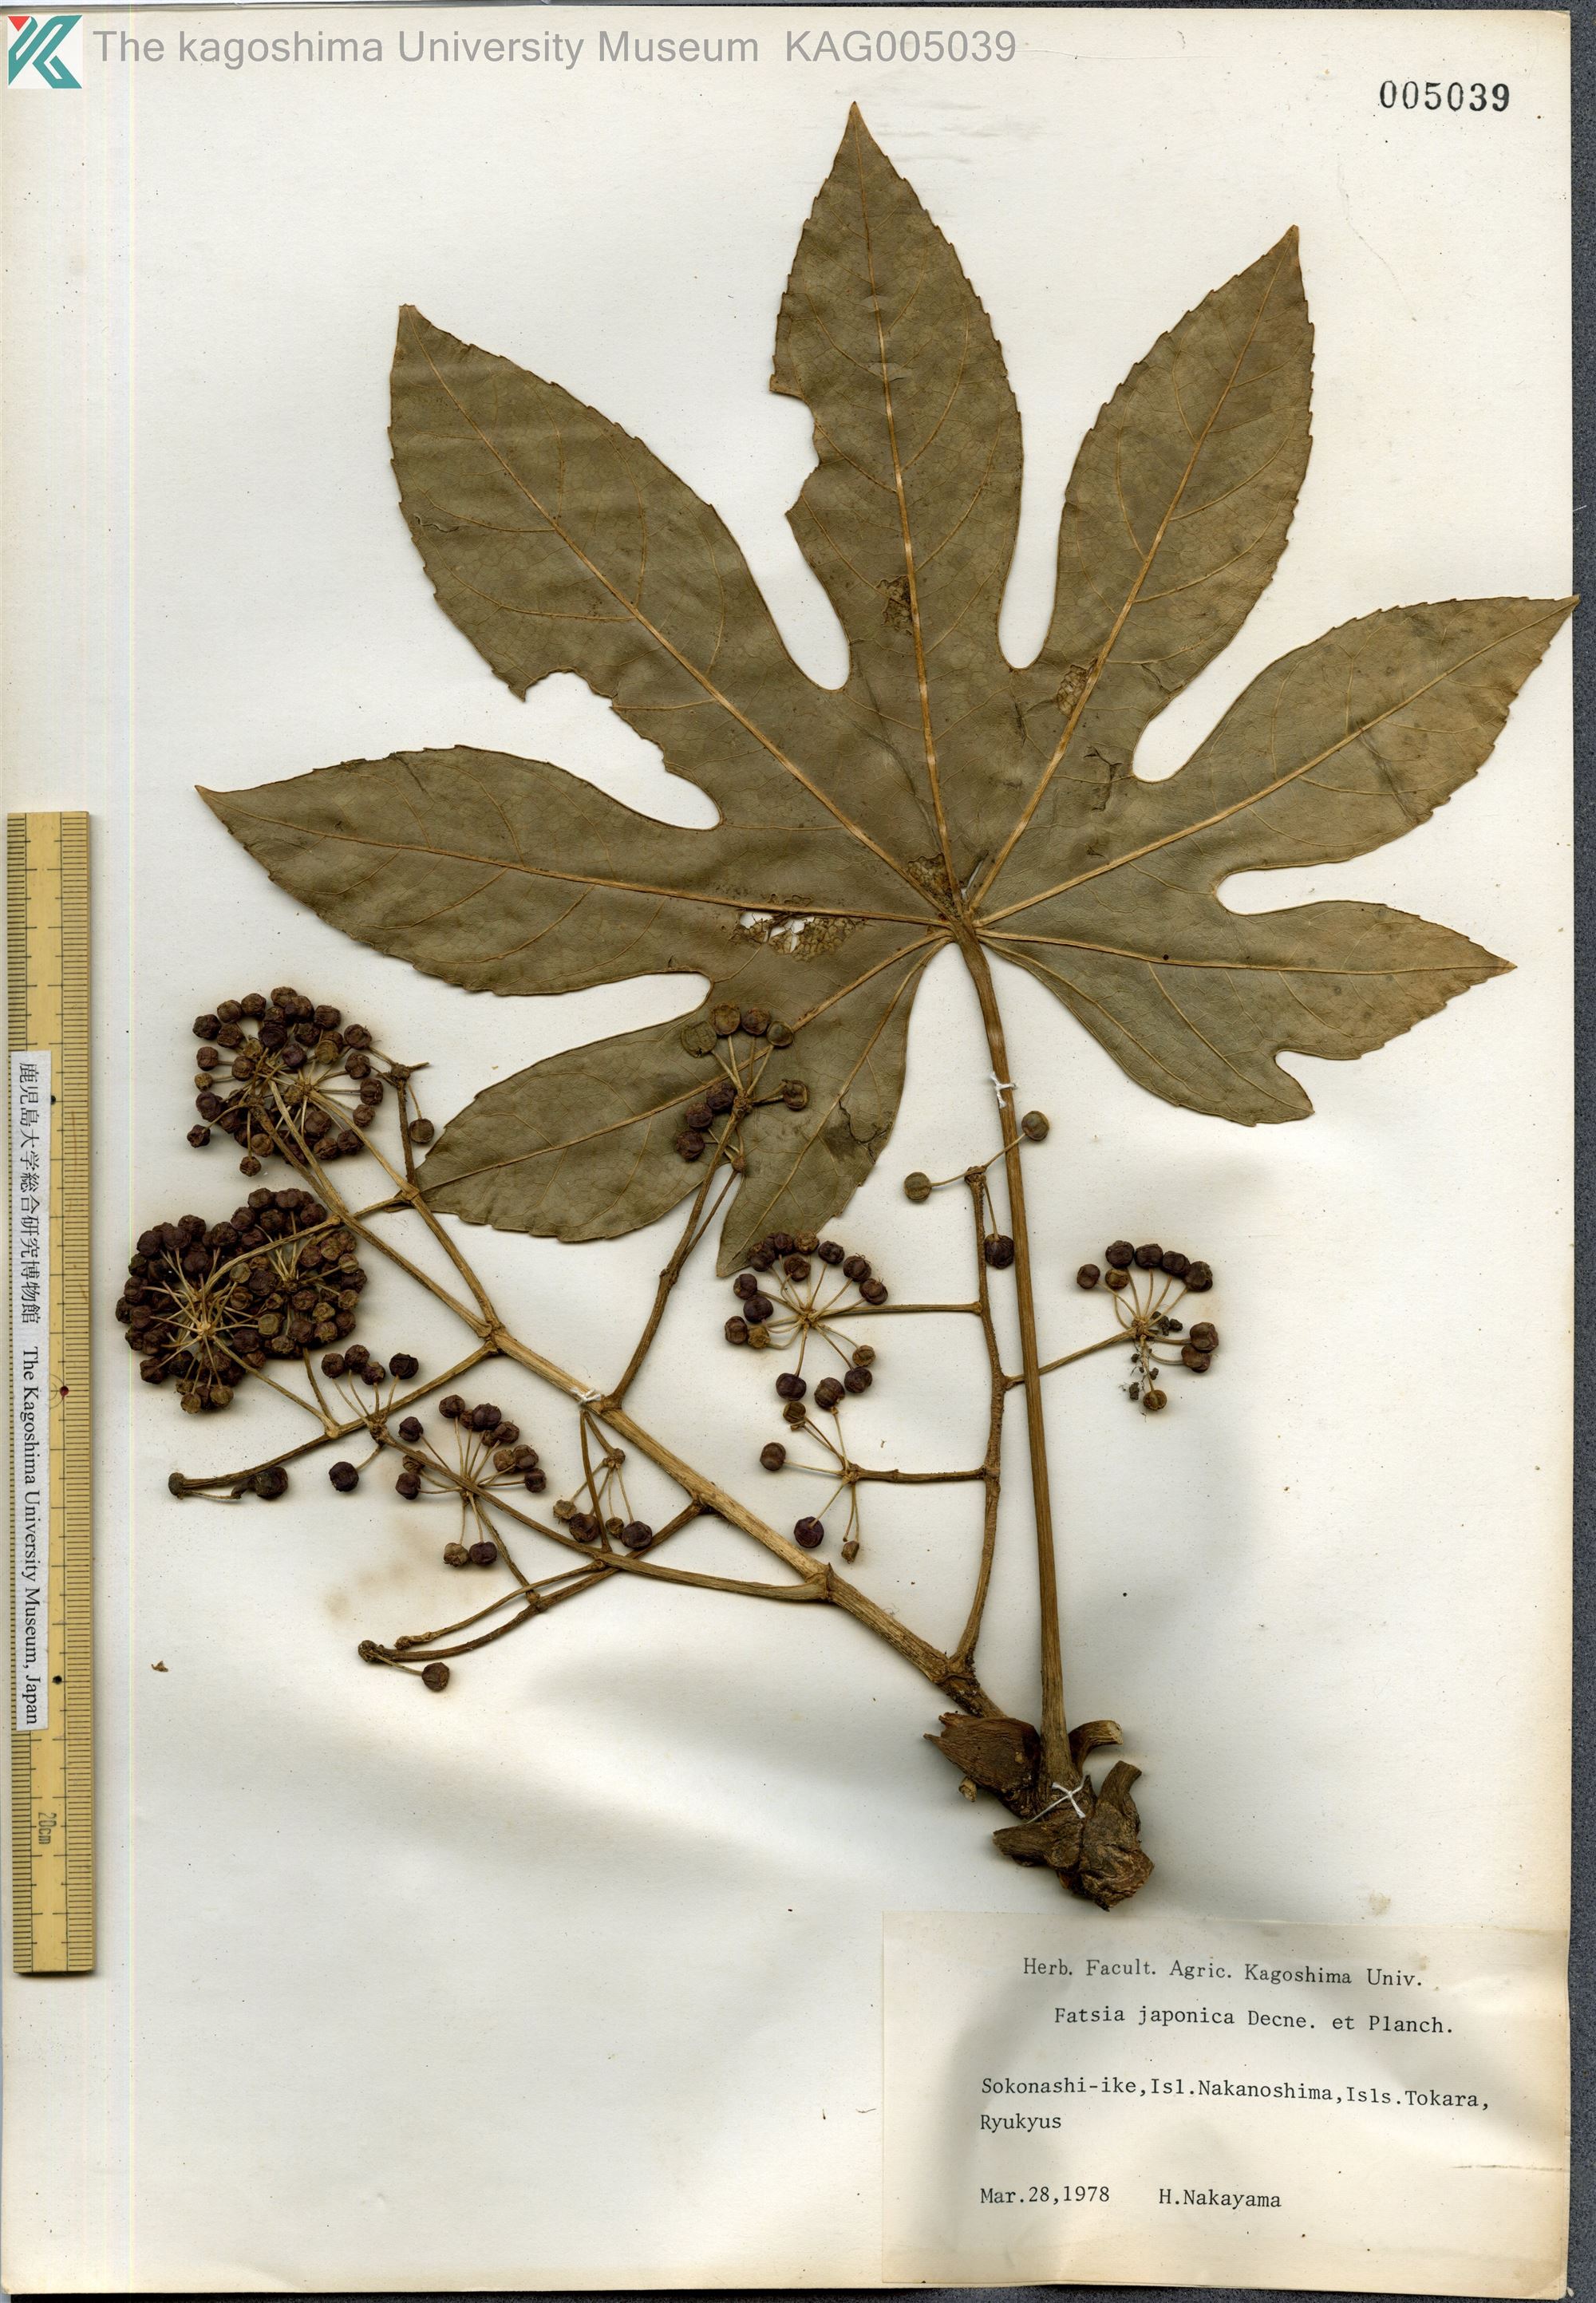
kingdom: Plantae
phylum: Tracheophyta
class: Magnoliopsida
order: Apiales
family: Araliaceae
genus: Fatsia
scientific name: Fatsia japonica
